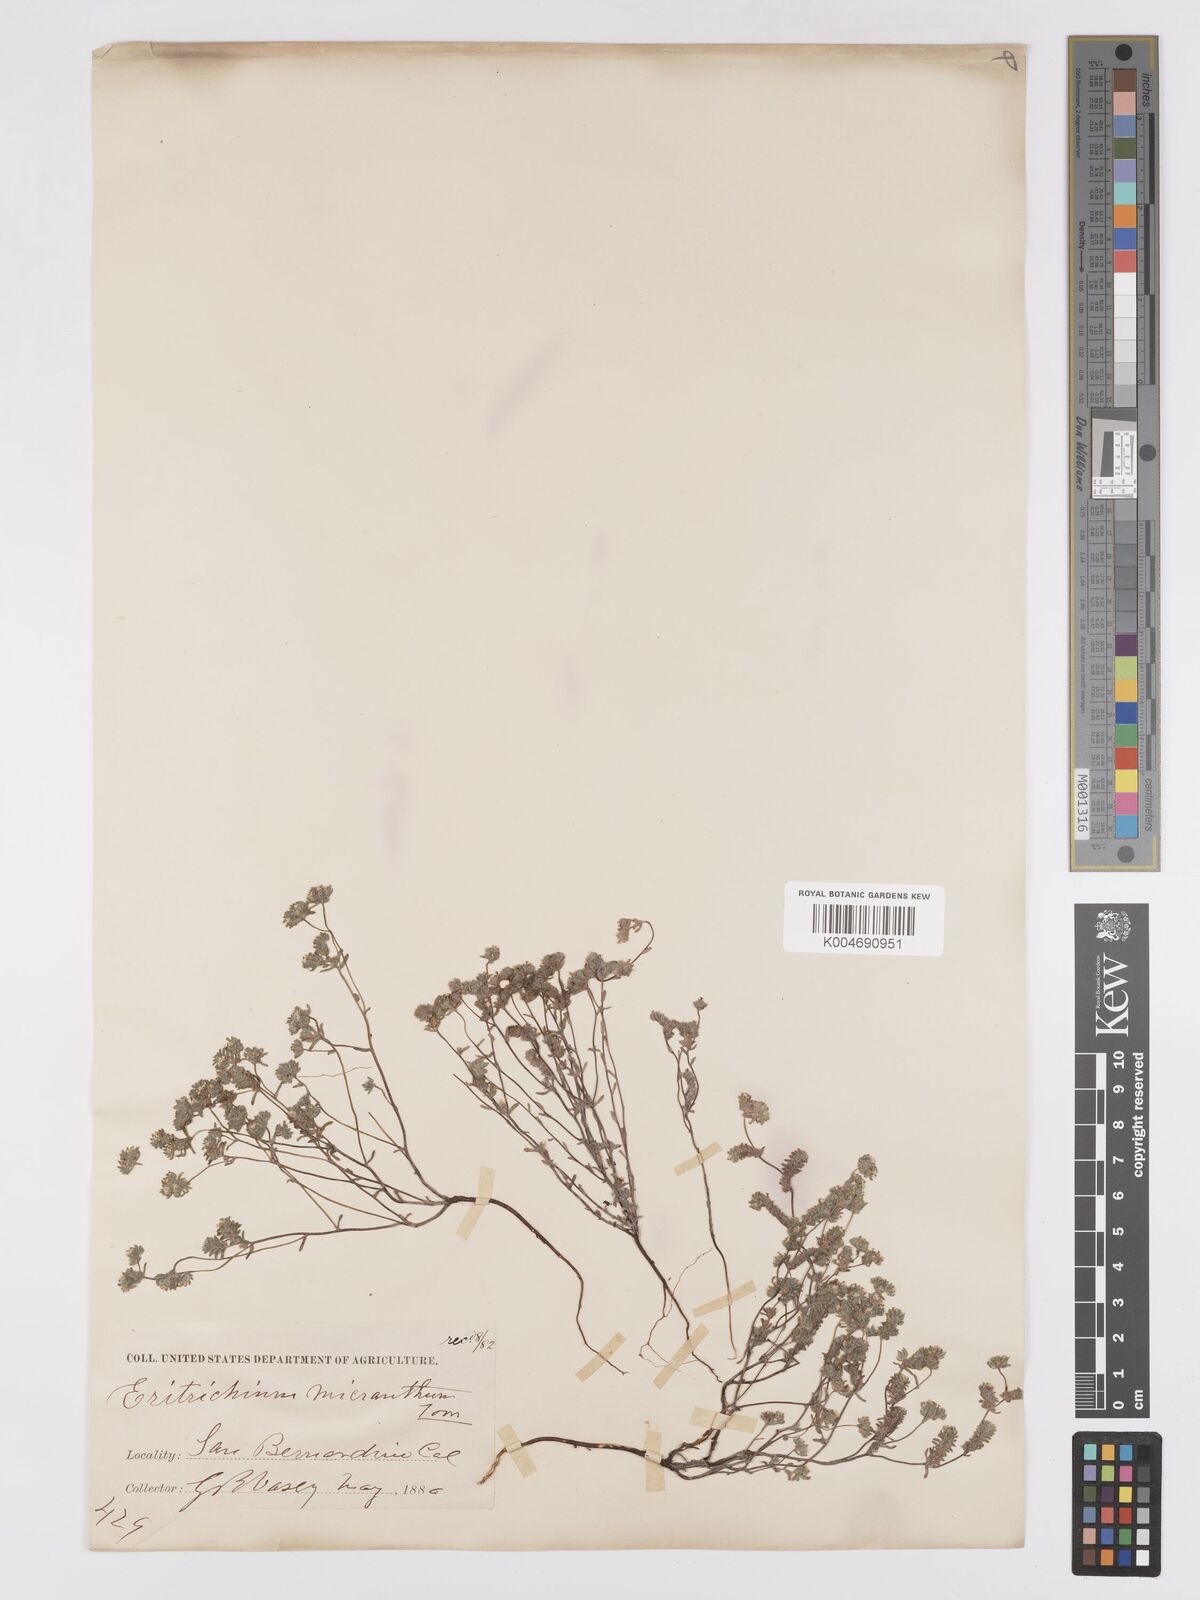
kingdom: Plantae
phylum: Tracheophyta
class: Magnoliopsida
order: Boraginales
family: Boraginaceae
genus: Eremocarya
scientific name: Eremocarya micrantha
